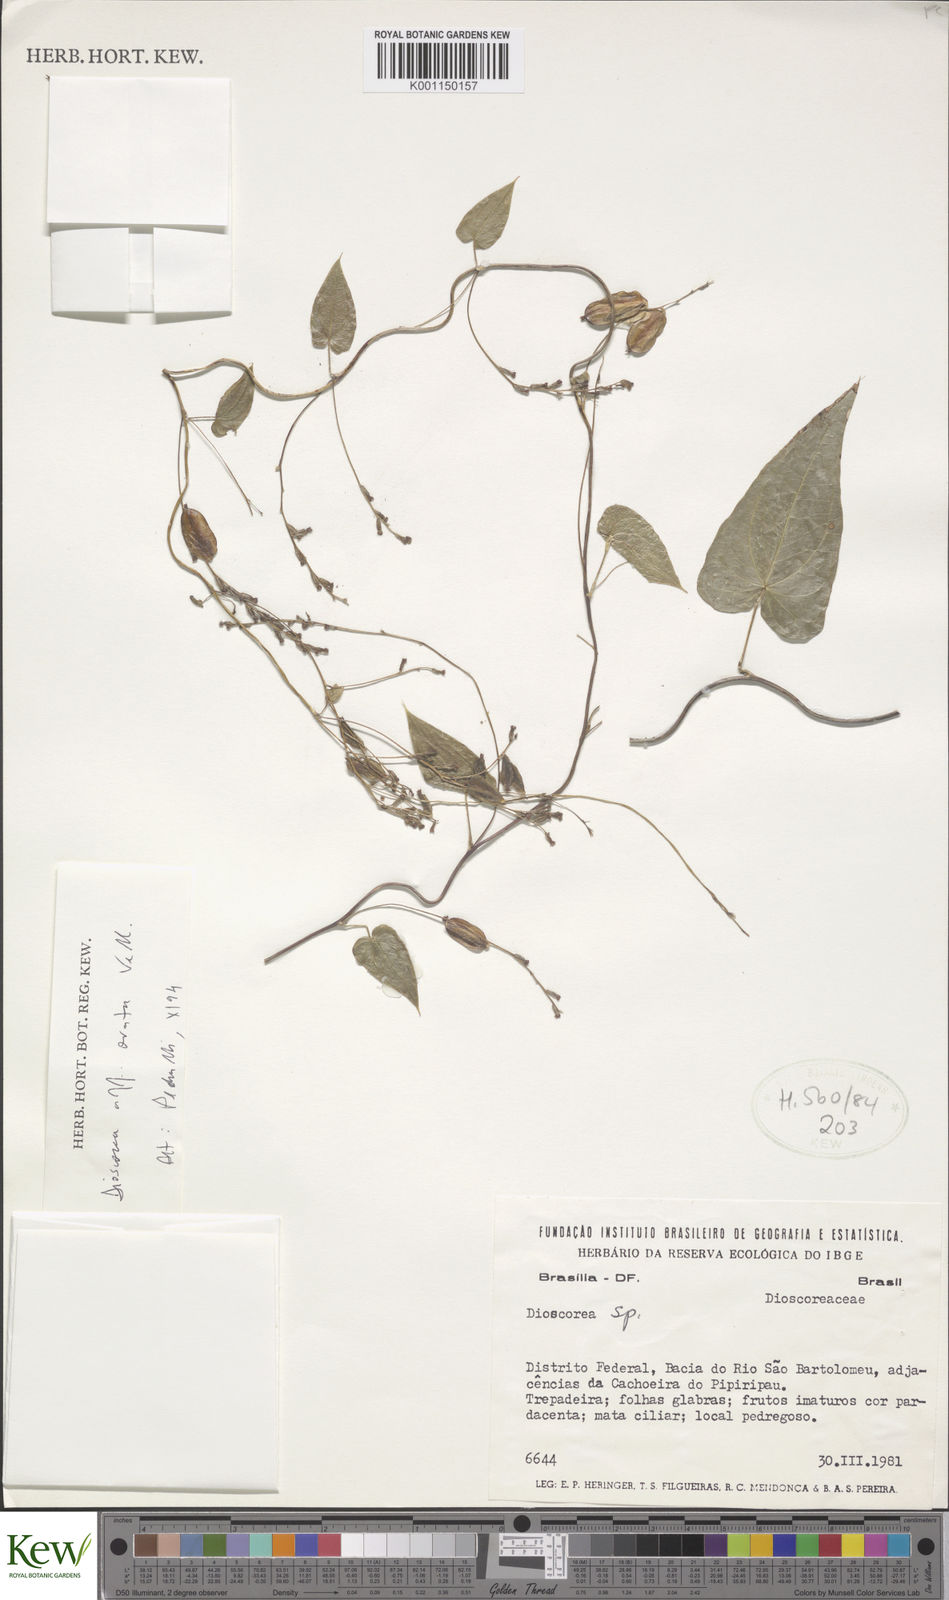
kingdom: Plantae
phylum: Tracheophyta
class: Liliopsida
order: Dioscoreales
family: Dioscoreaceae
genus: Dioscorea
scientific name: Dioscorea
